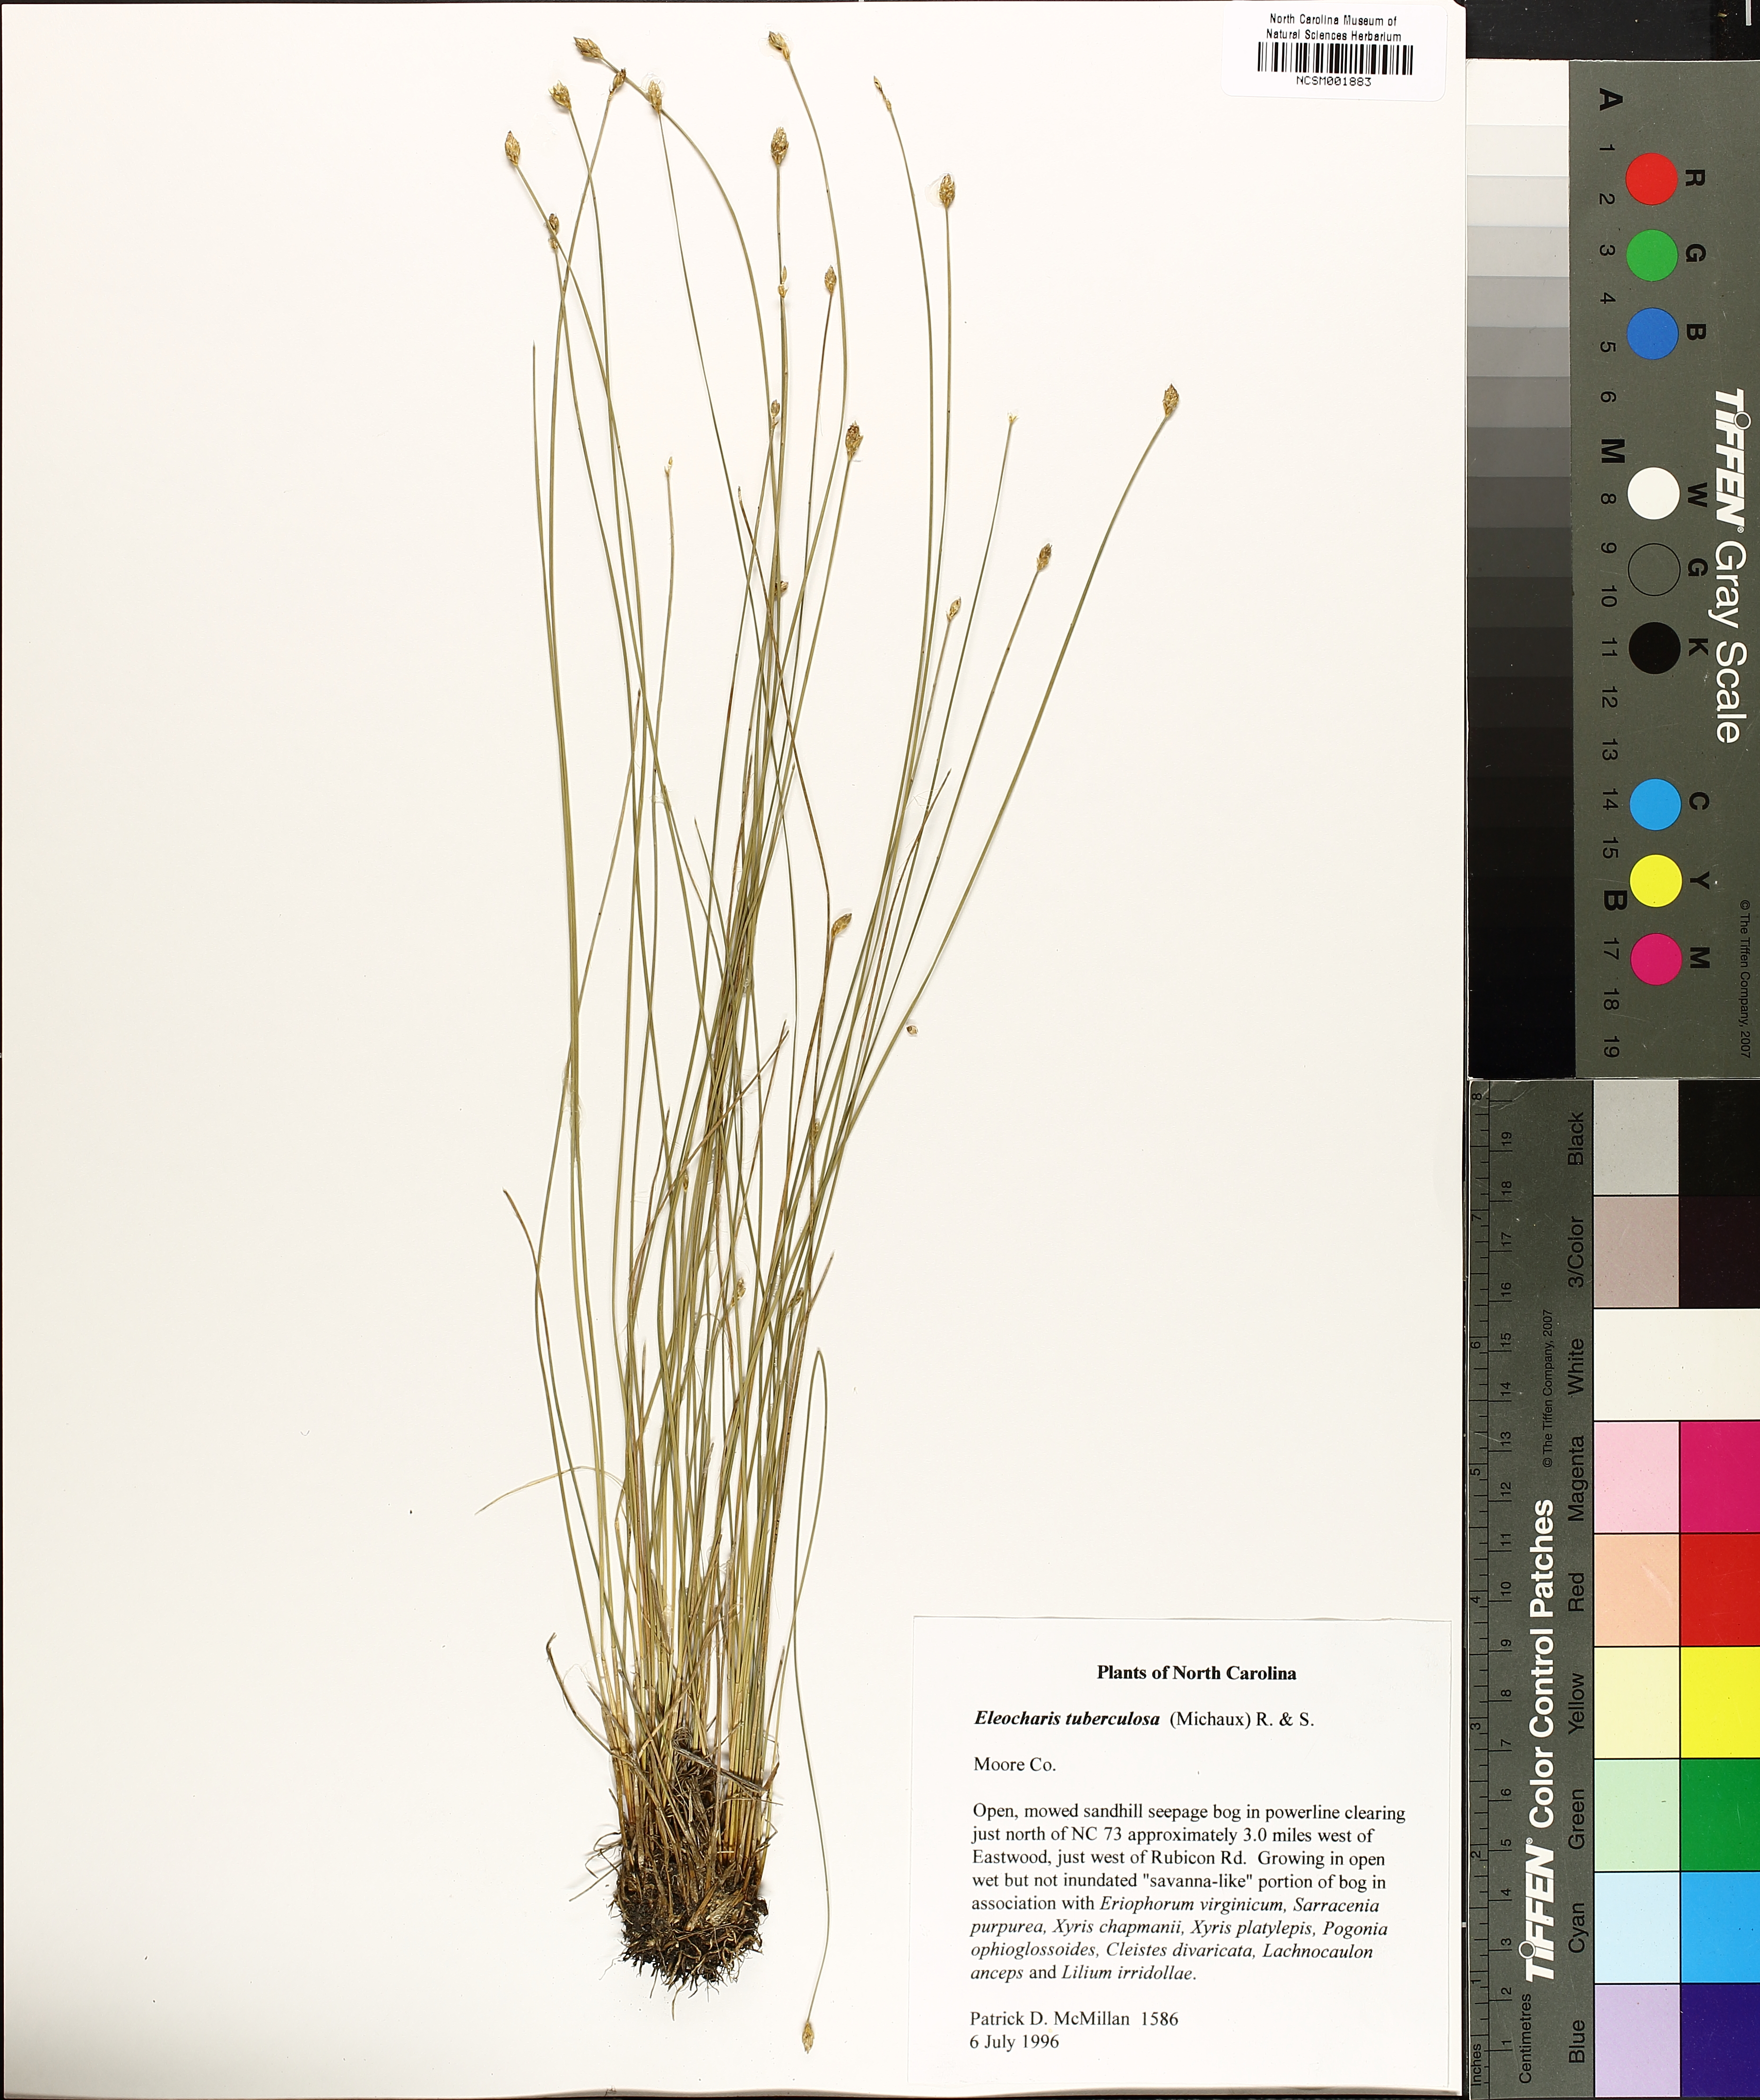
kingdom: Plantae
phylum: Tracheophyta
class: Liliopsida
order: Poales
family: Cyperaceae
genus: Eleocharis
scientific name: Eleocharis tuberculosa
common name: Cone-cup spikerush
